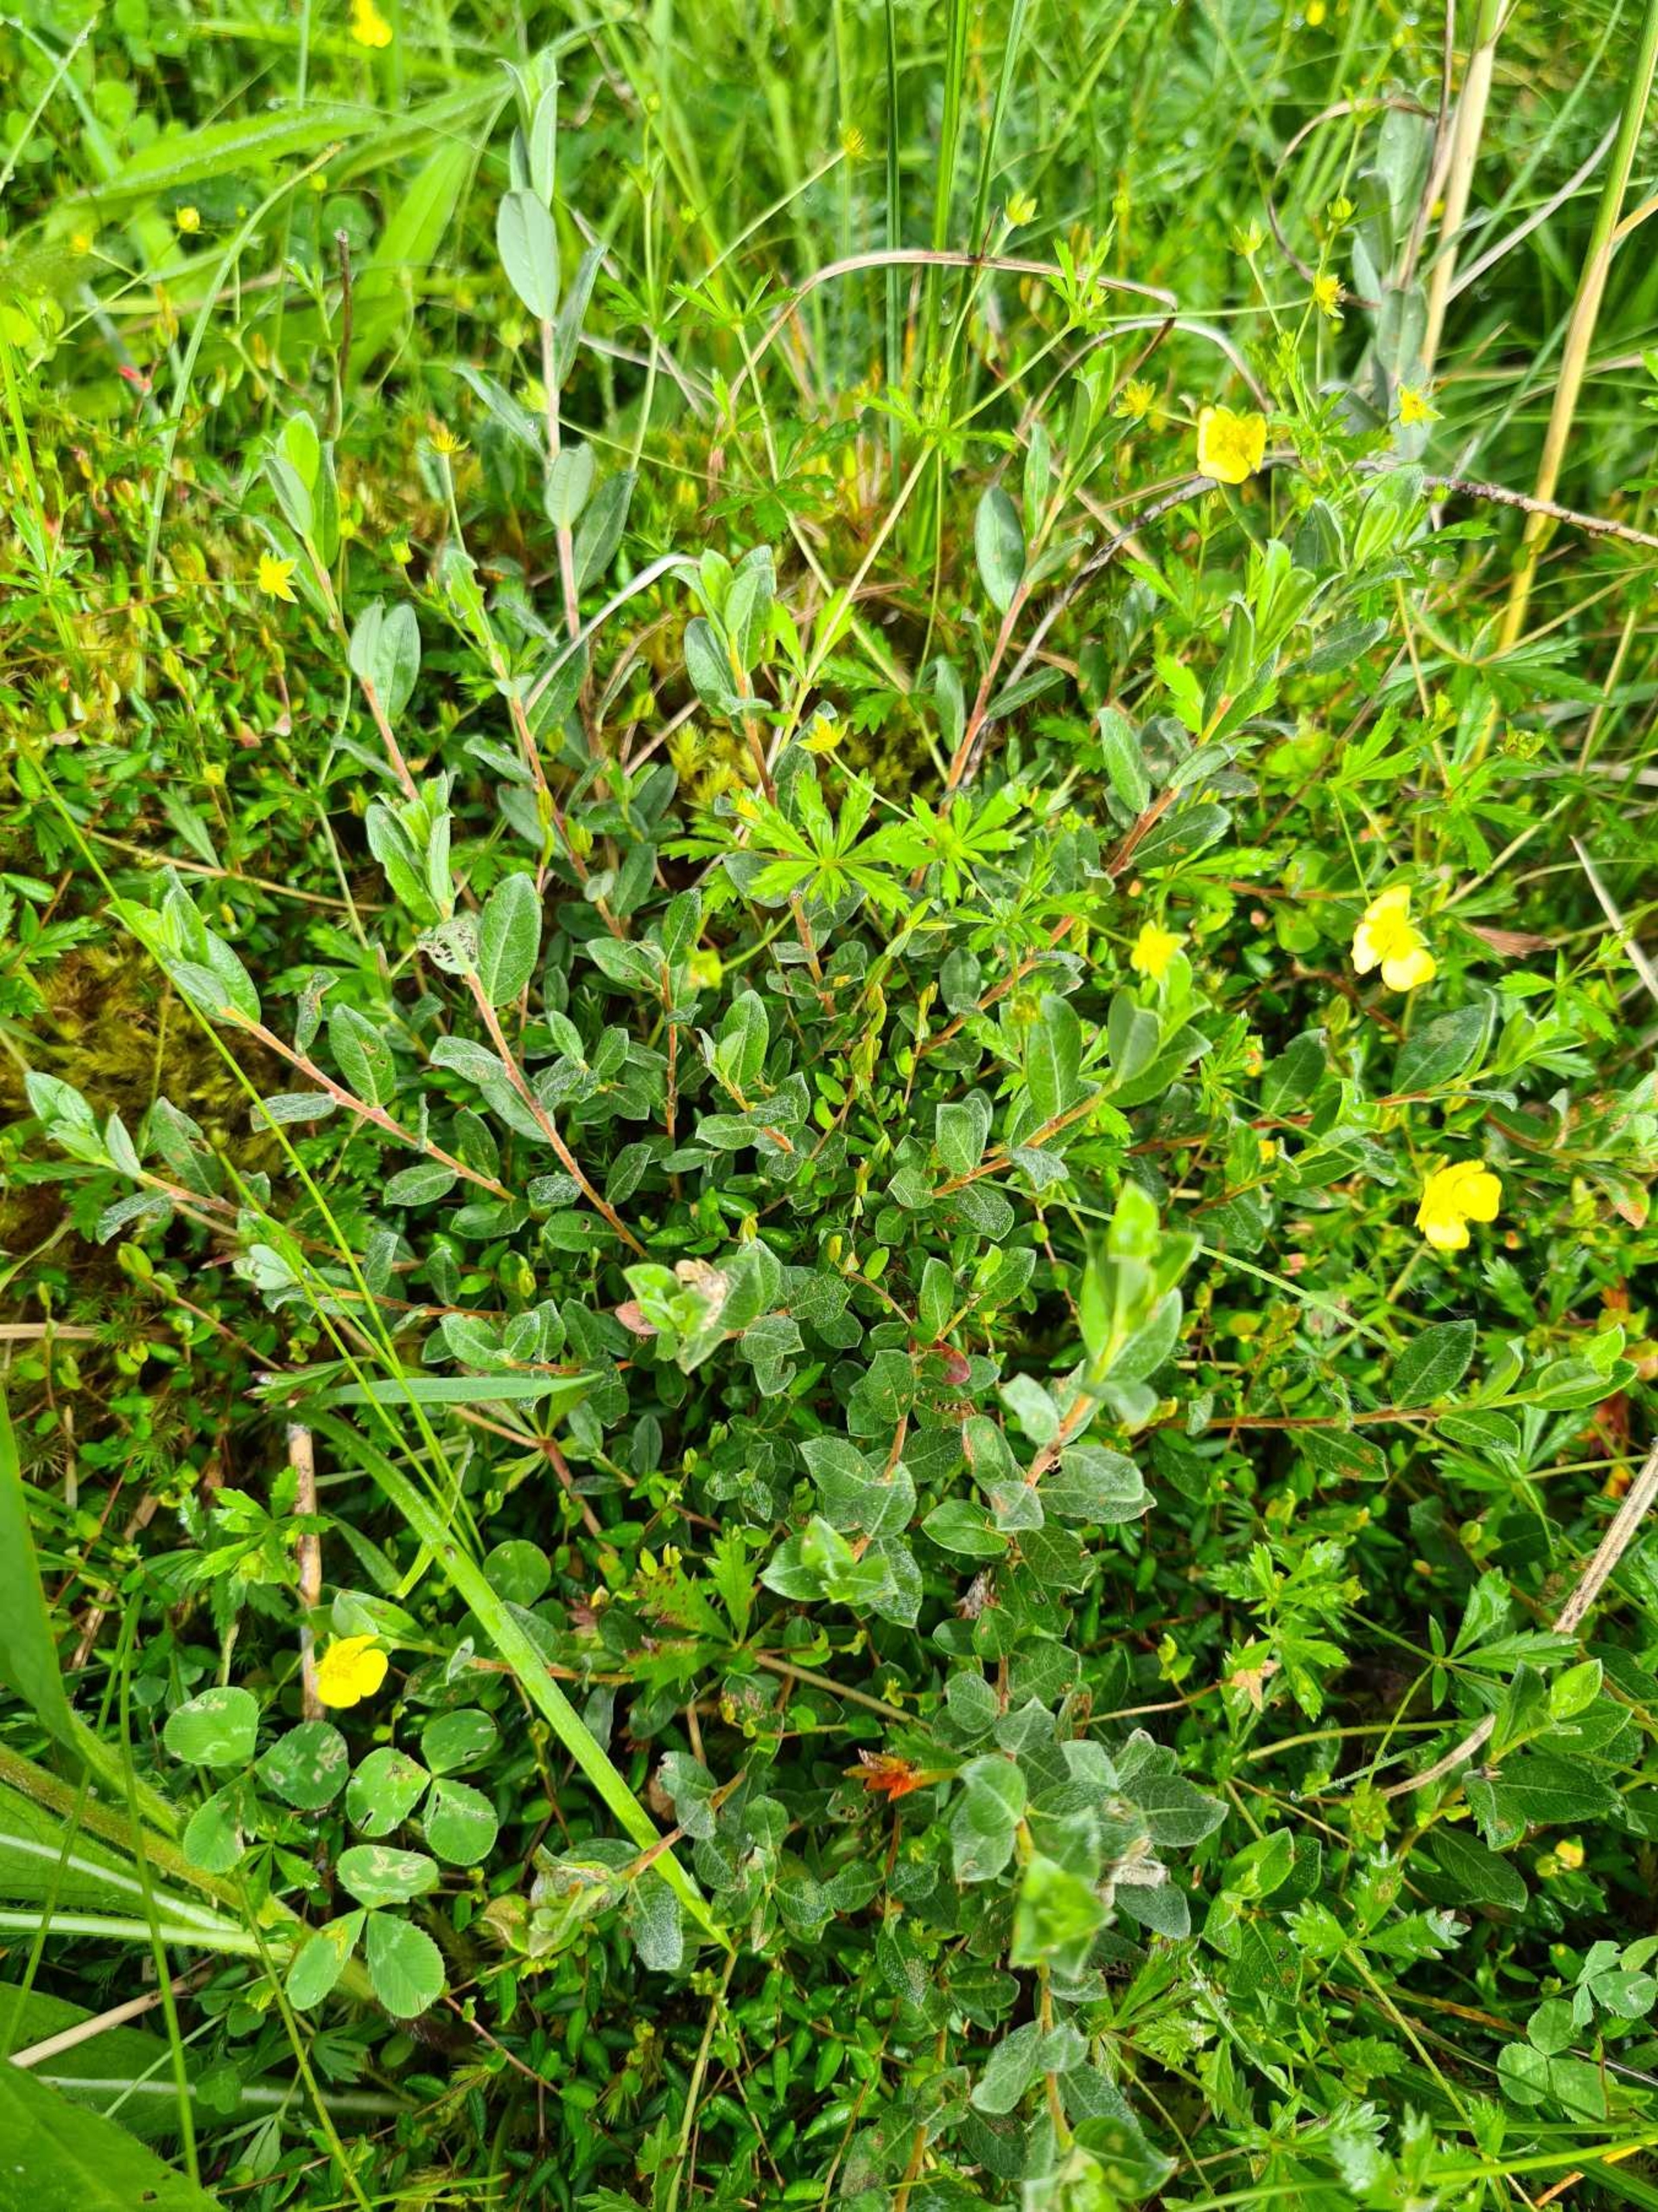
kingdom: Plantae
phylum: Tracheophyta
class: Magnoliopsida
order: Malpighiales
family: Salicaceae
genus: Salix
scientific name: Salix repens
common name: Krybende pil
